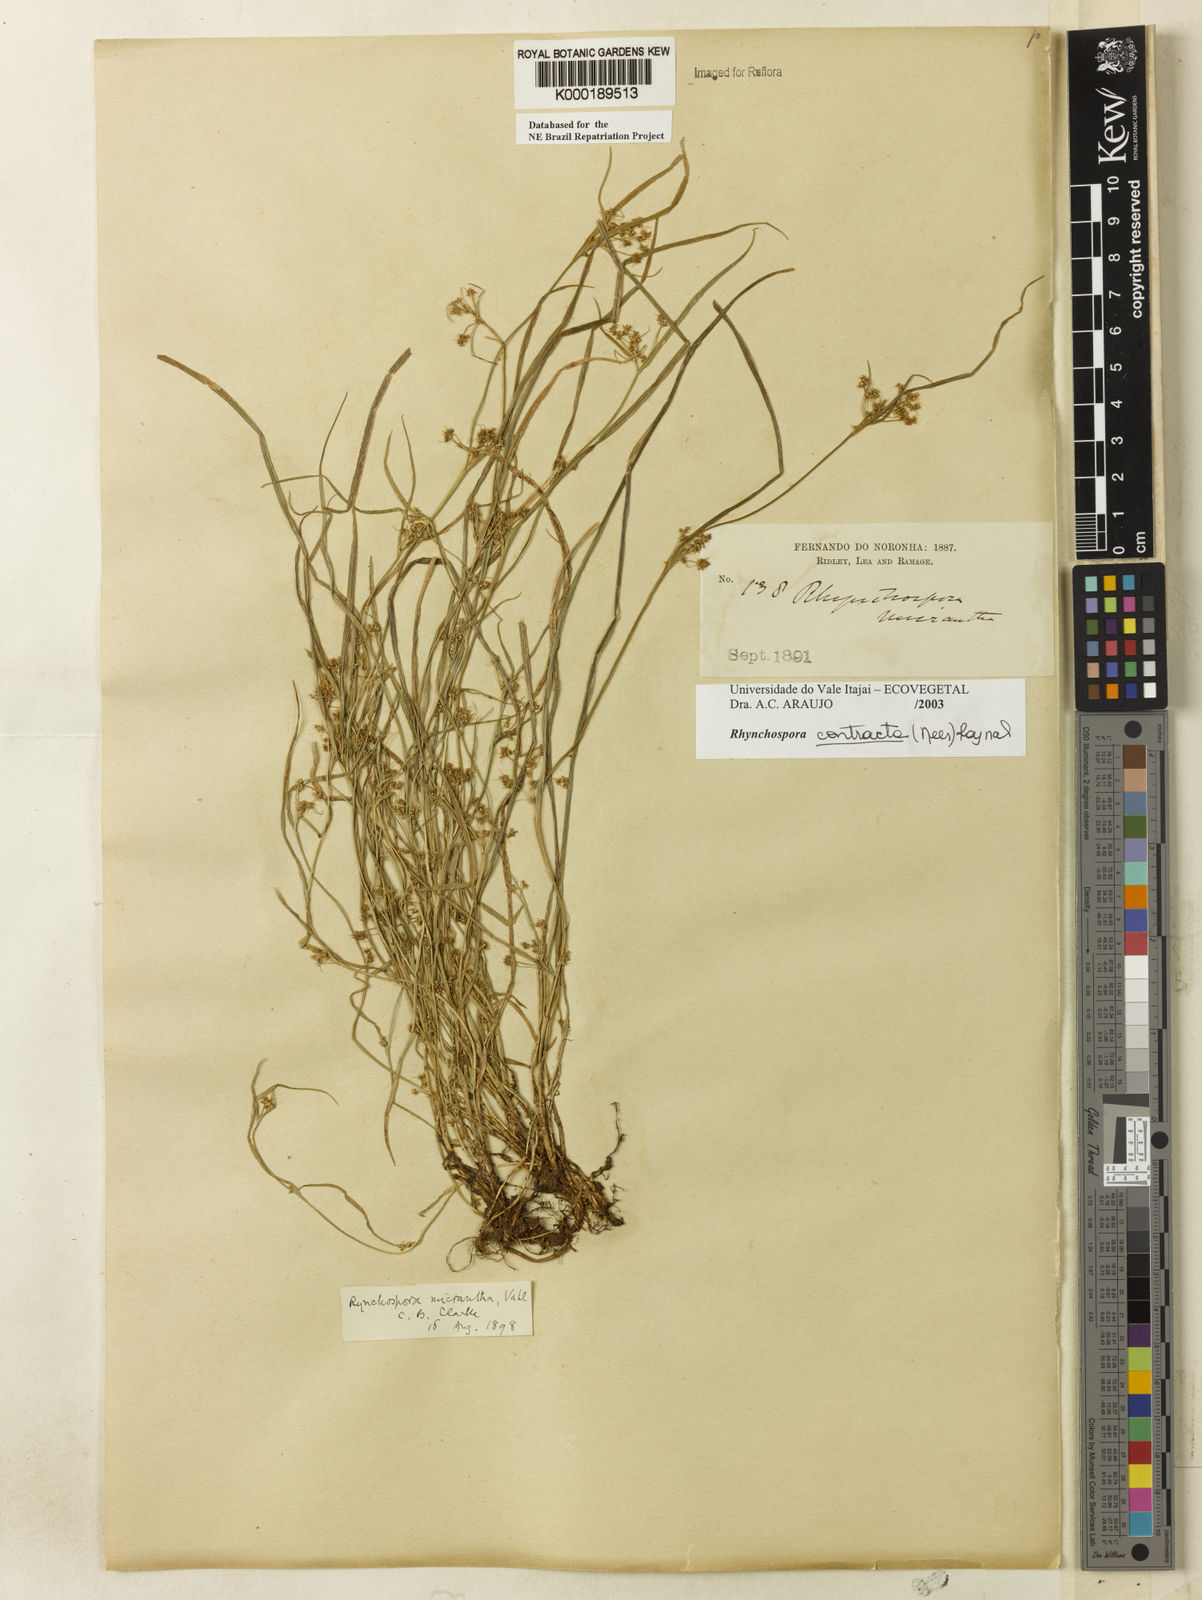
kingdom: Plantae
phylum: Tracheophyta
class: Liliopsida
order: Poales
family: Cyperaceae
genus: Rhynchospora
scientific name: Rhynchospora contracta
